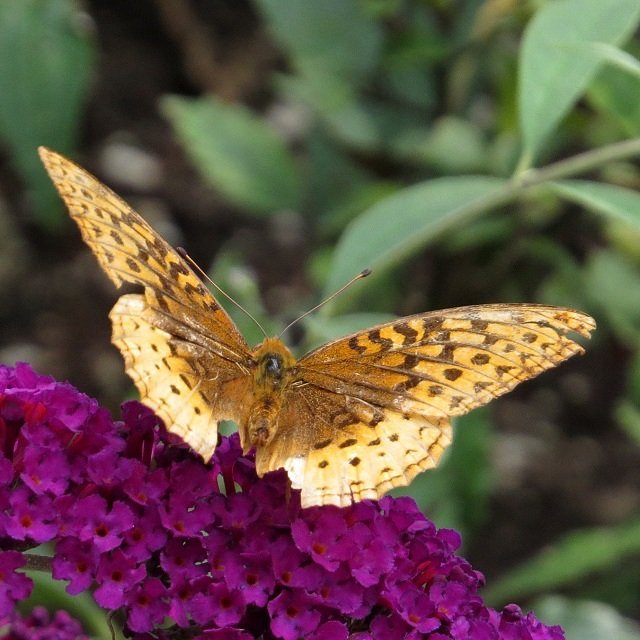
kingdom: Animalia
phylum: Arthropoda
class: Insecta
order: Lepidoptera
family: Nymphalidae
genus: Speyeria
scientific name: Speyeria cybele
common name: Great Spangled Fritillary
